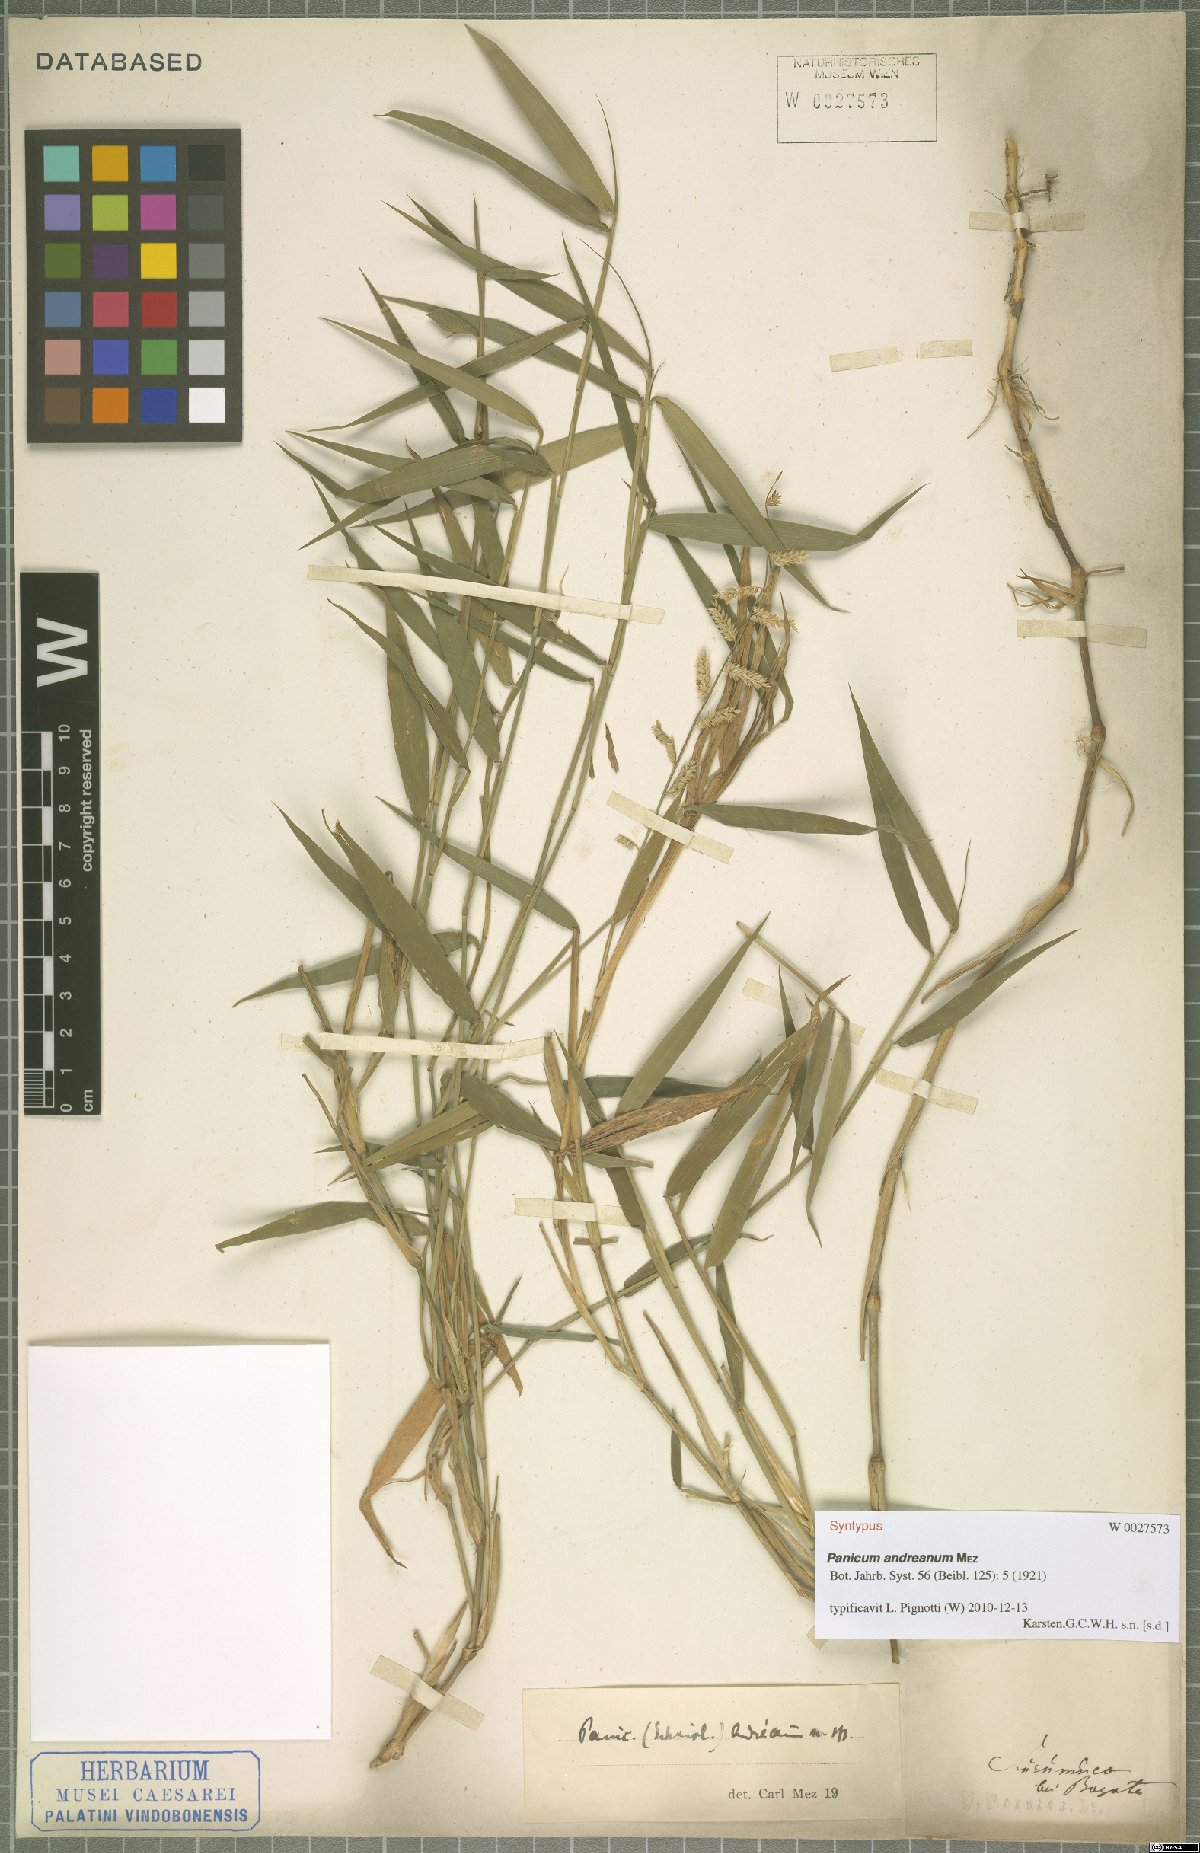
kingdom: Plantae
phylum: Tracheophyta
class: Liliopsida
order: Poales
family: Poaceae
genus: Ocellochloa
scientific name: Ocellochloa andreana
